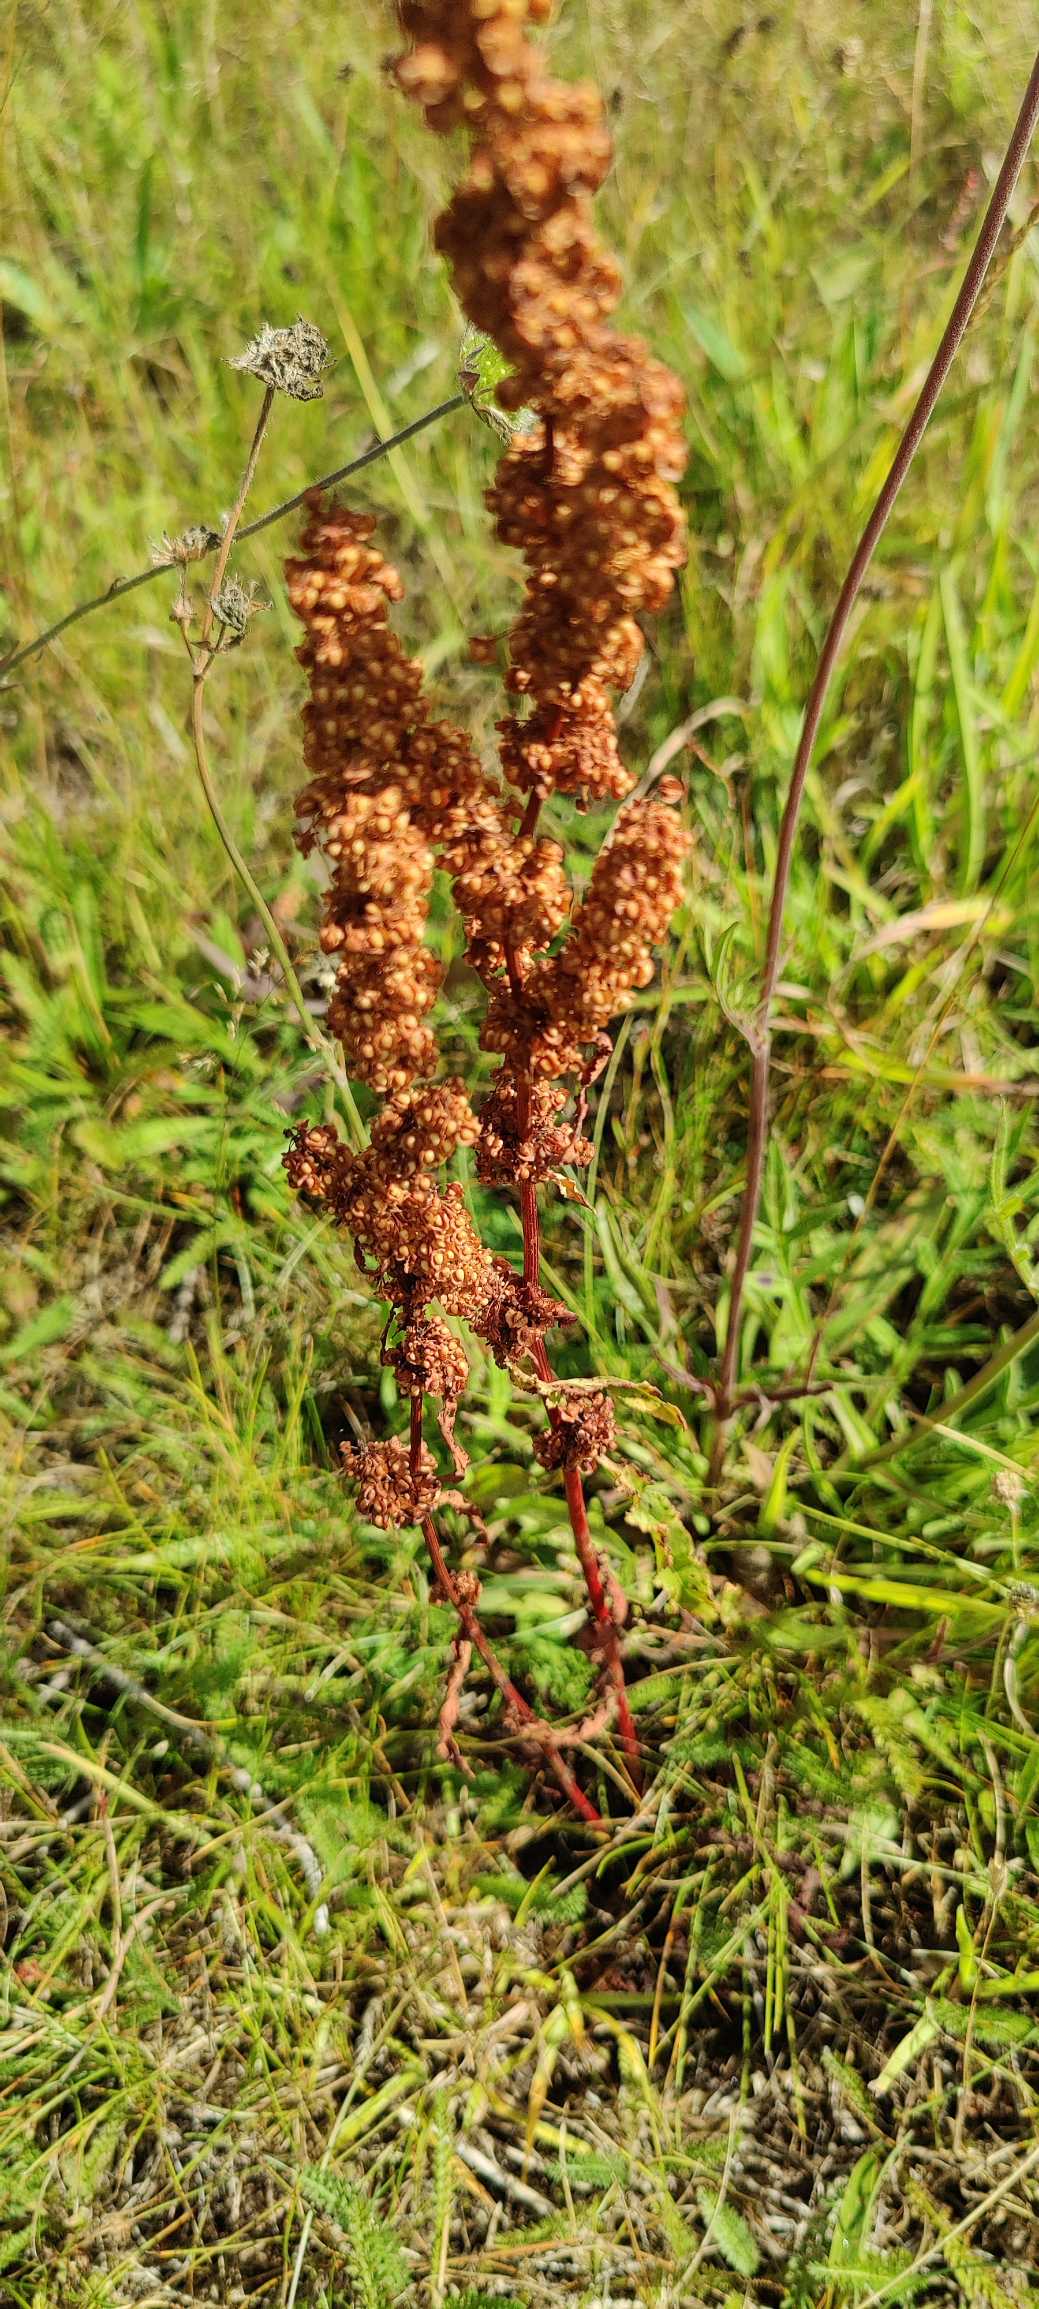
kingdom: Plantae
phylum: Tracheophyta
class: Magnoliopsida
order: Caryophyllales
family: Polygonaceae
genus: Rumex
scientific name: Rumex crispus
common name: Kruset skræppe
